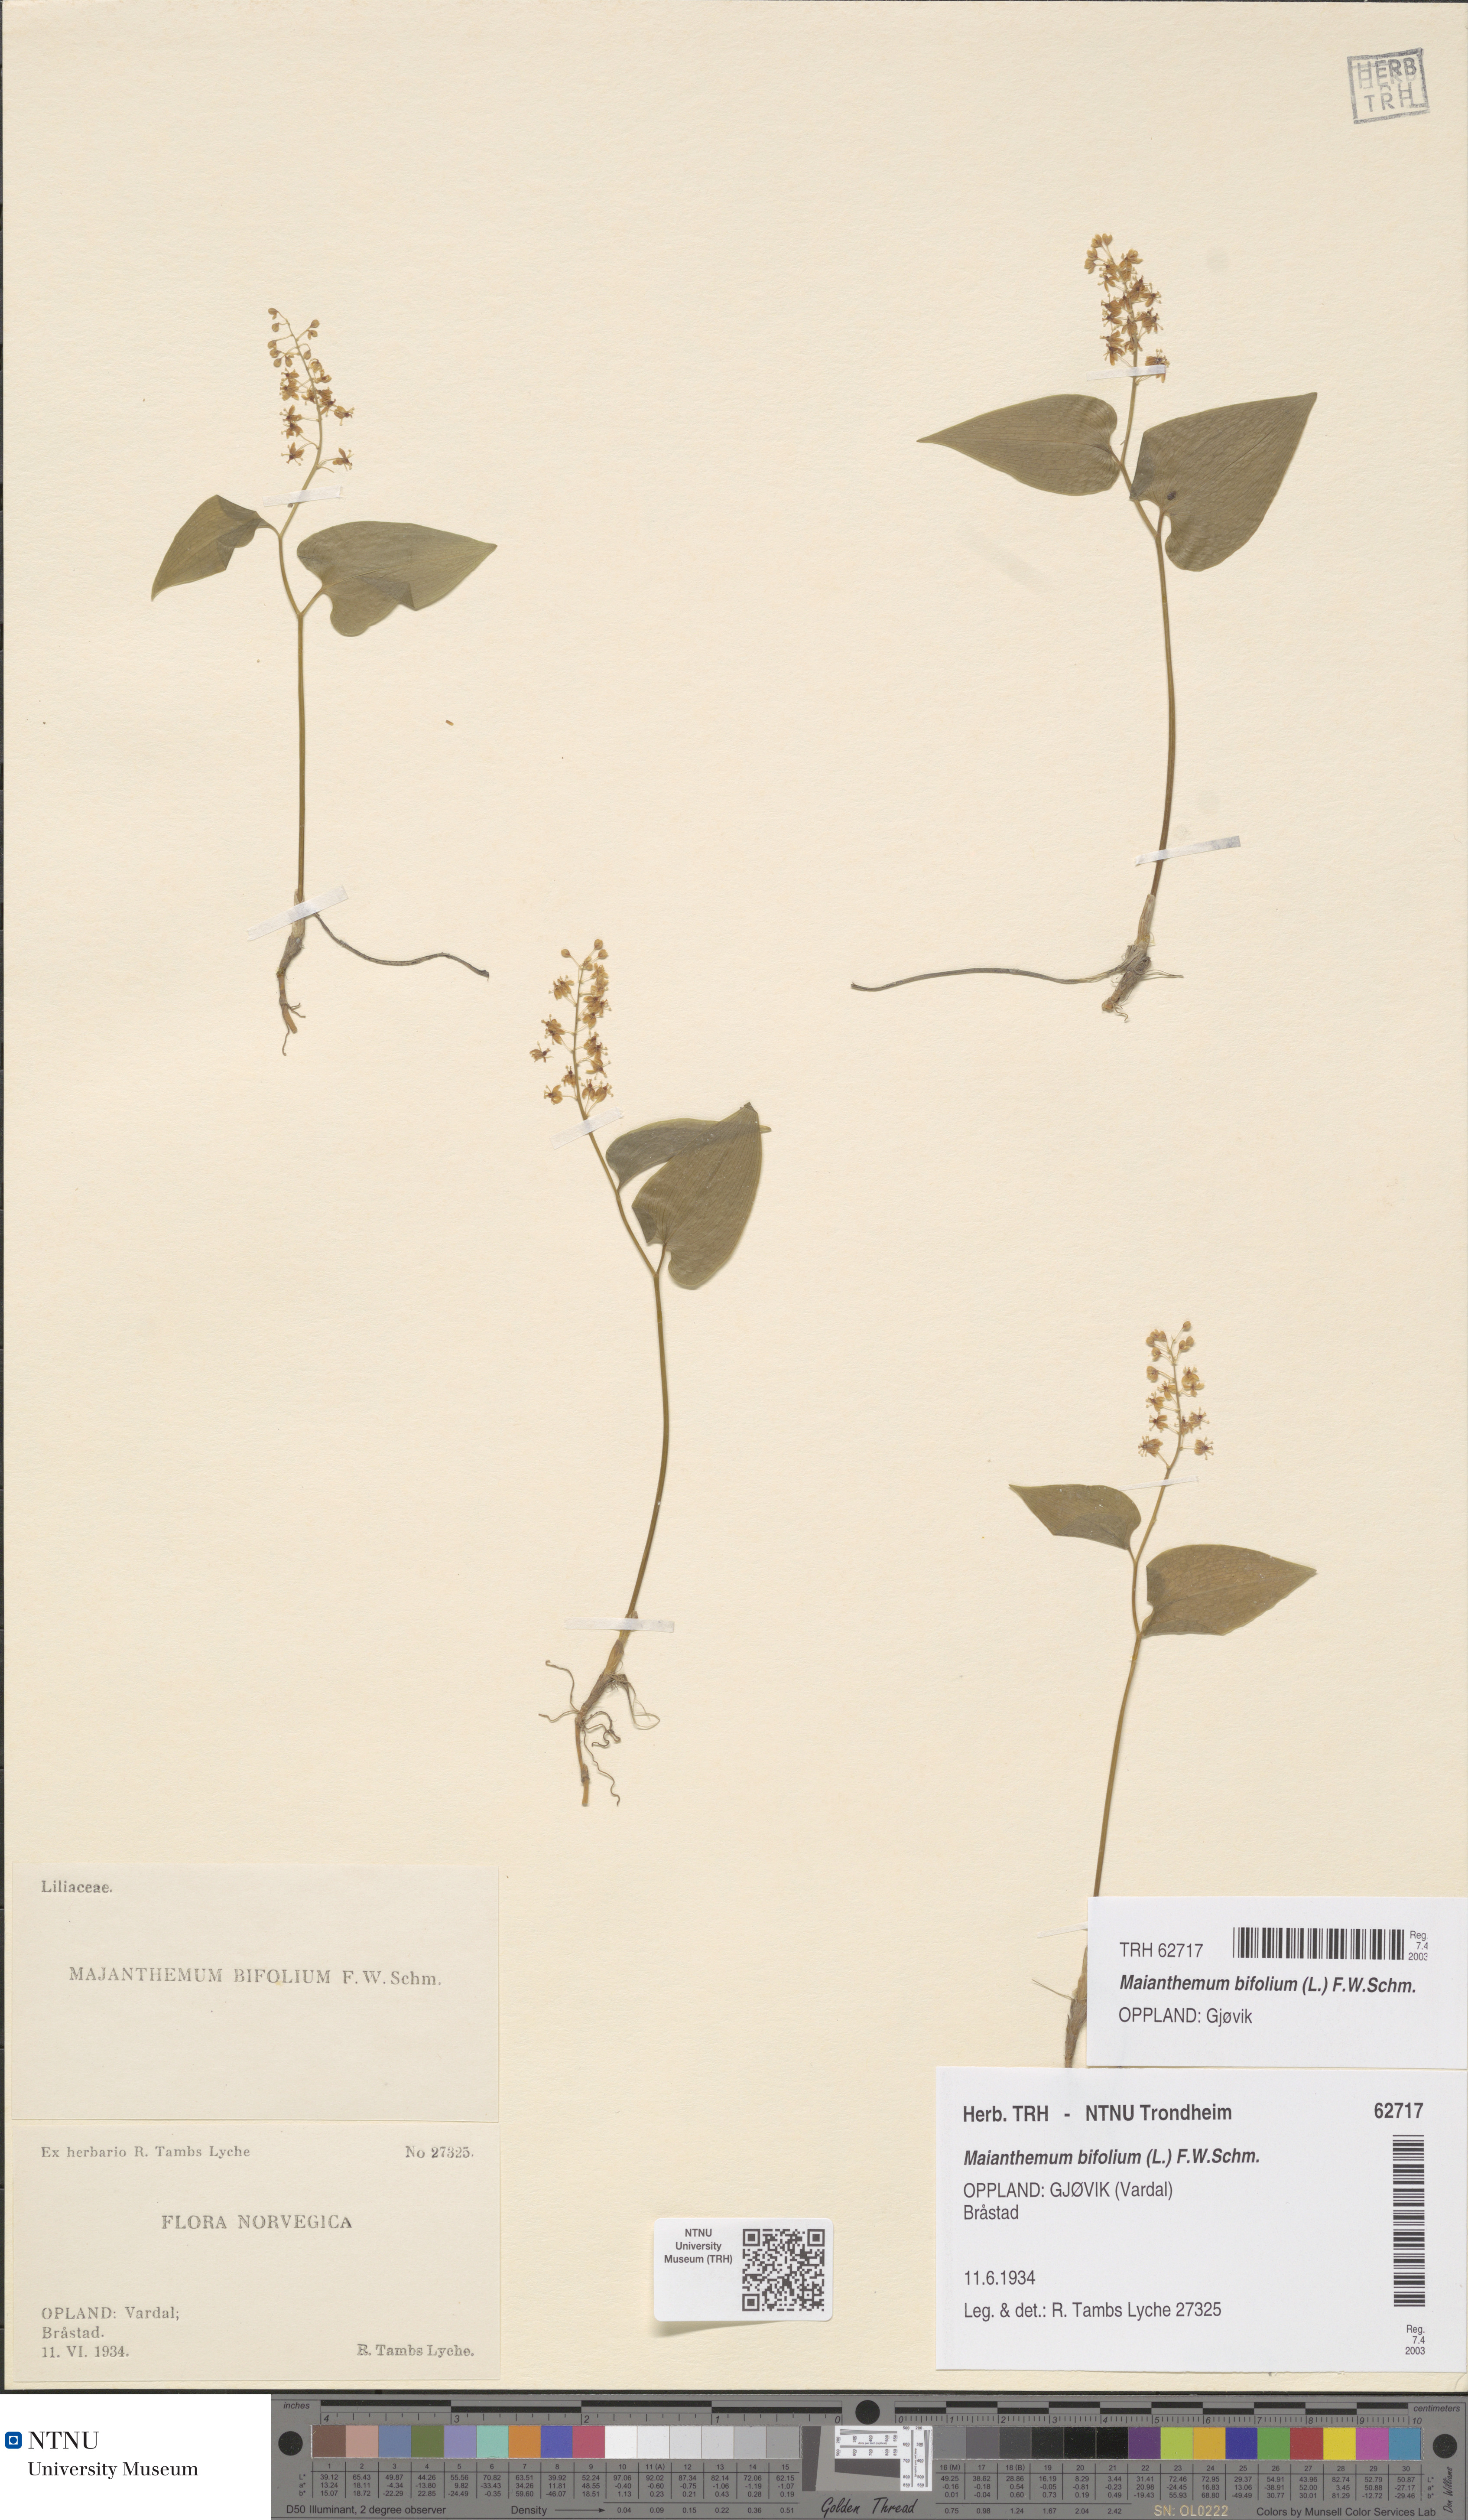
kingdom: Plantae
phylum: Tracheophyta
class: Liliopsida
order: Asparagales
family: Asparagaceae
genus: Maianthemum
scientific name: Maianthemum bifolium
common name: May lily
